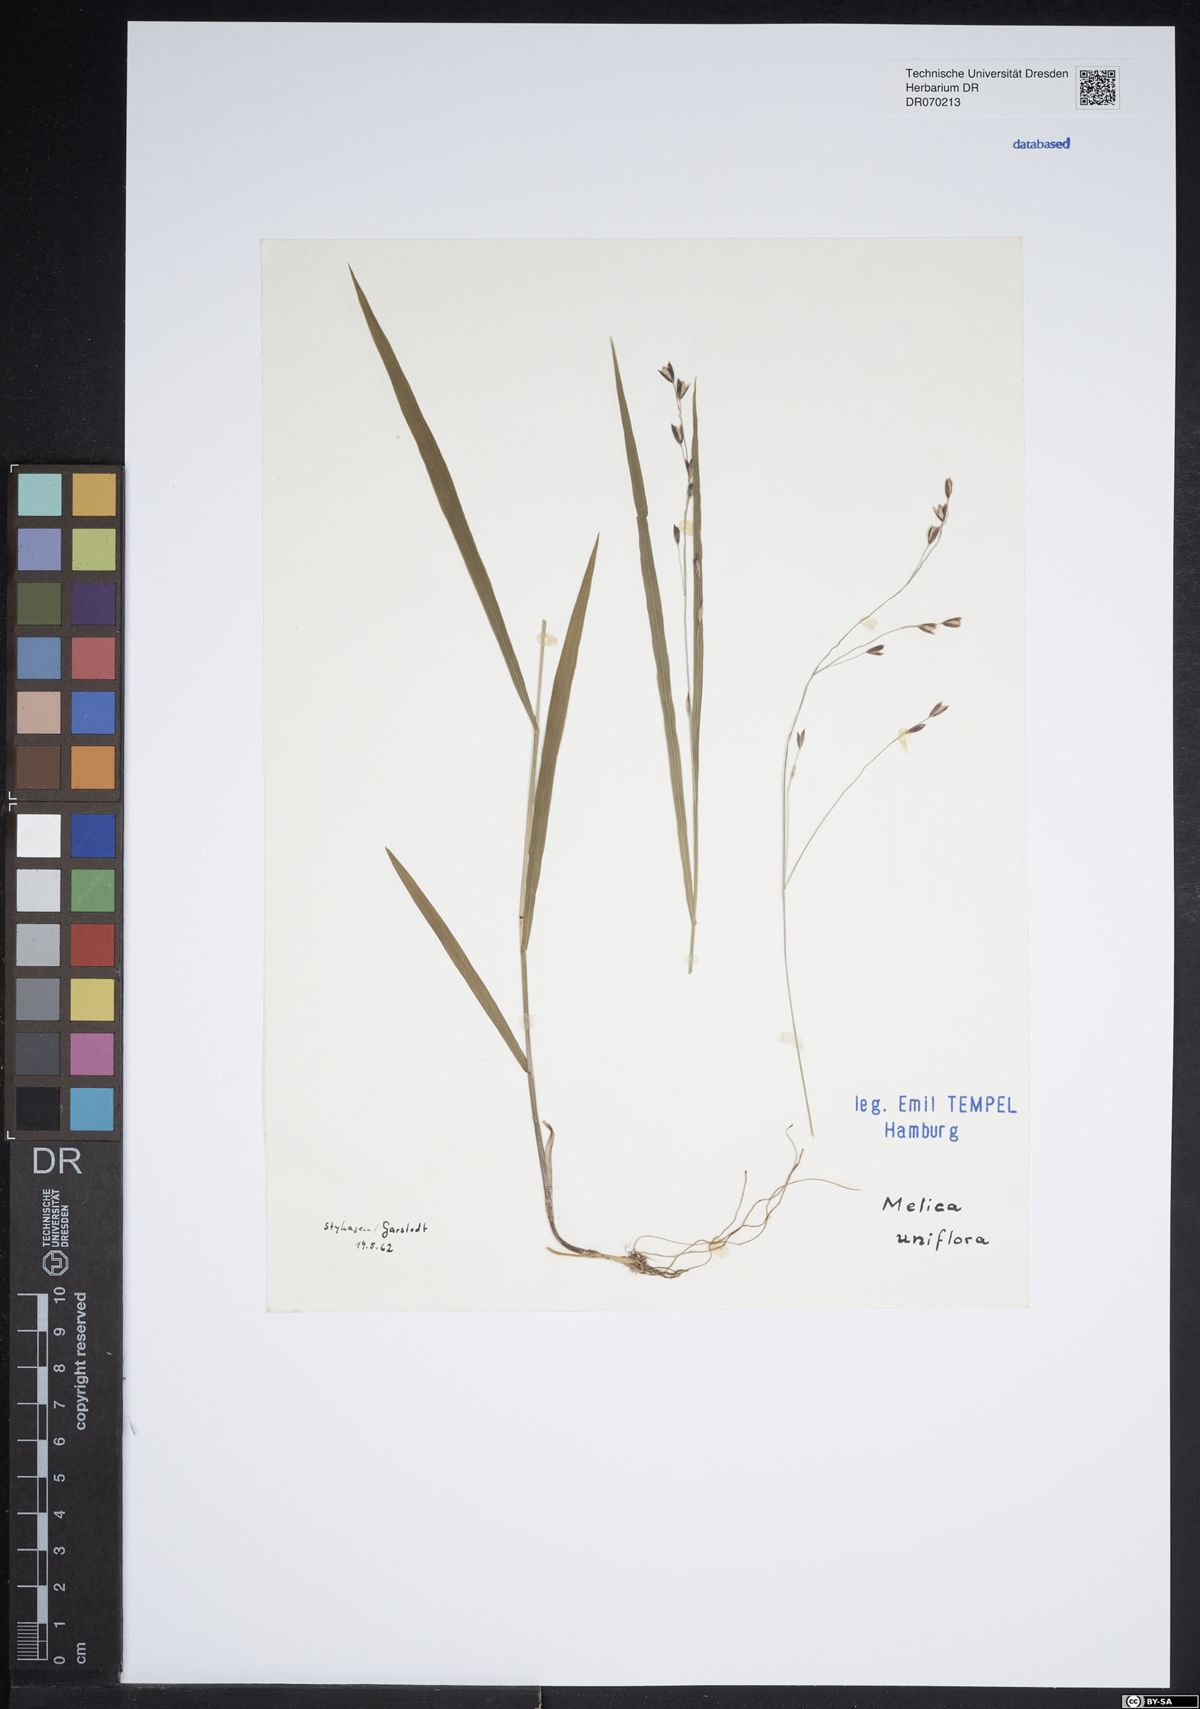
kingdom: Plantae
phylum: Tracheophyta
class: Liliopsida
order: Poales
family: Poaceae
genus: Melica
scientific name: Melica uniflora
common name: Wood melick
